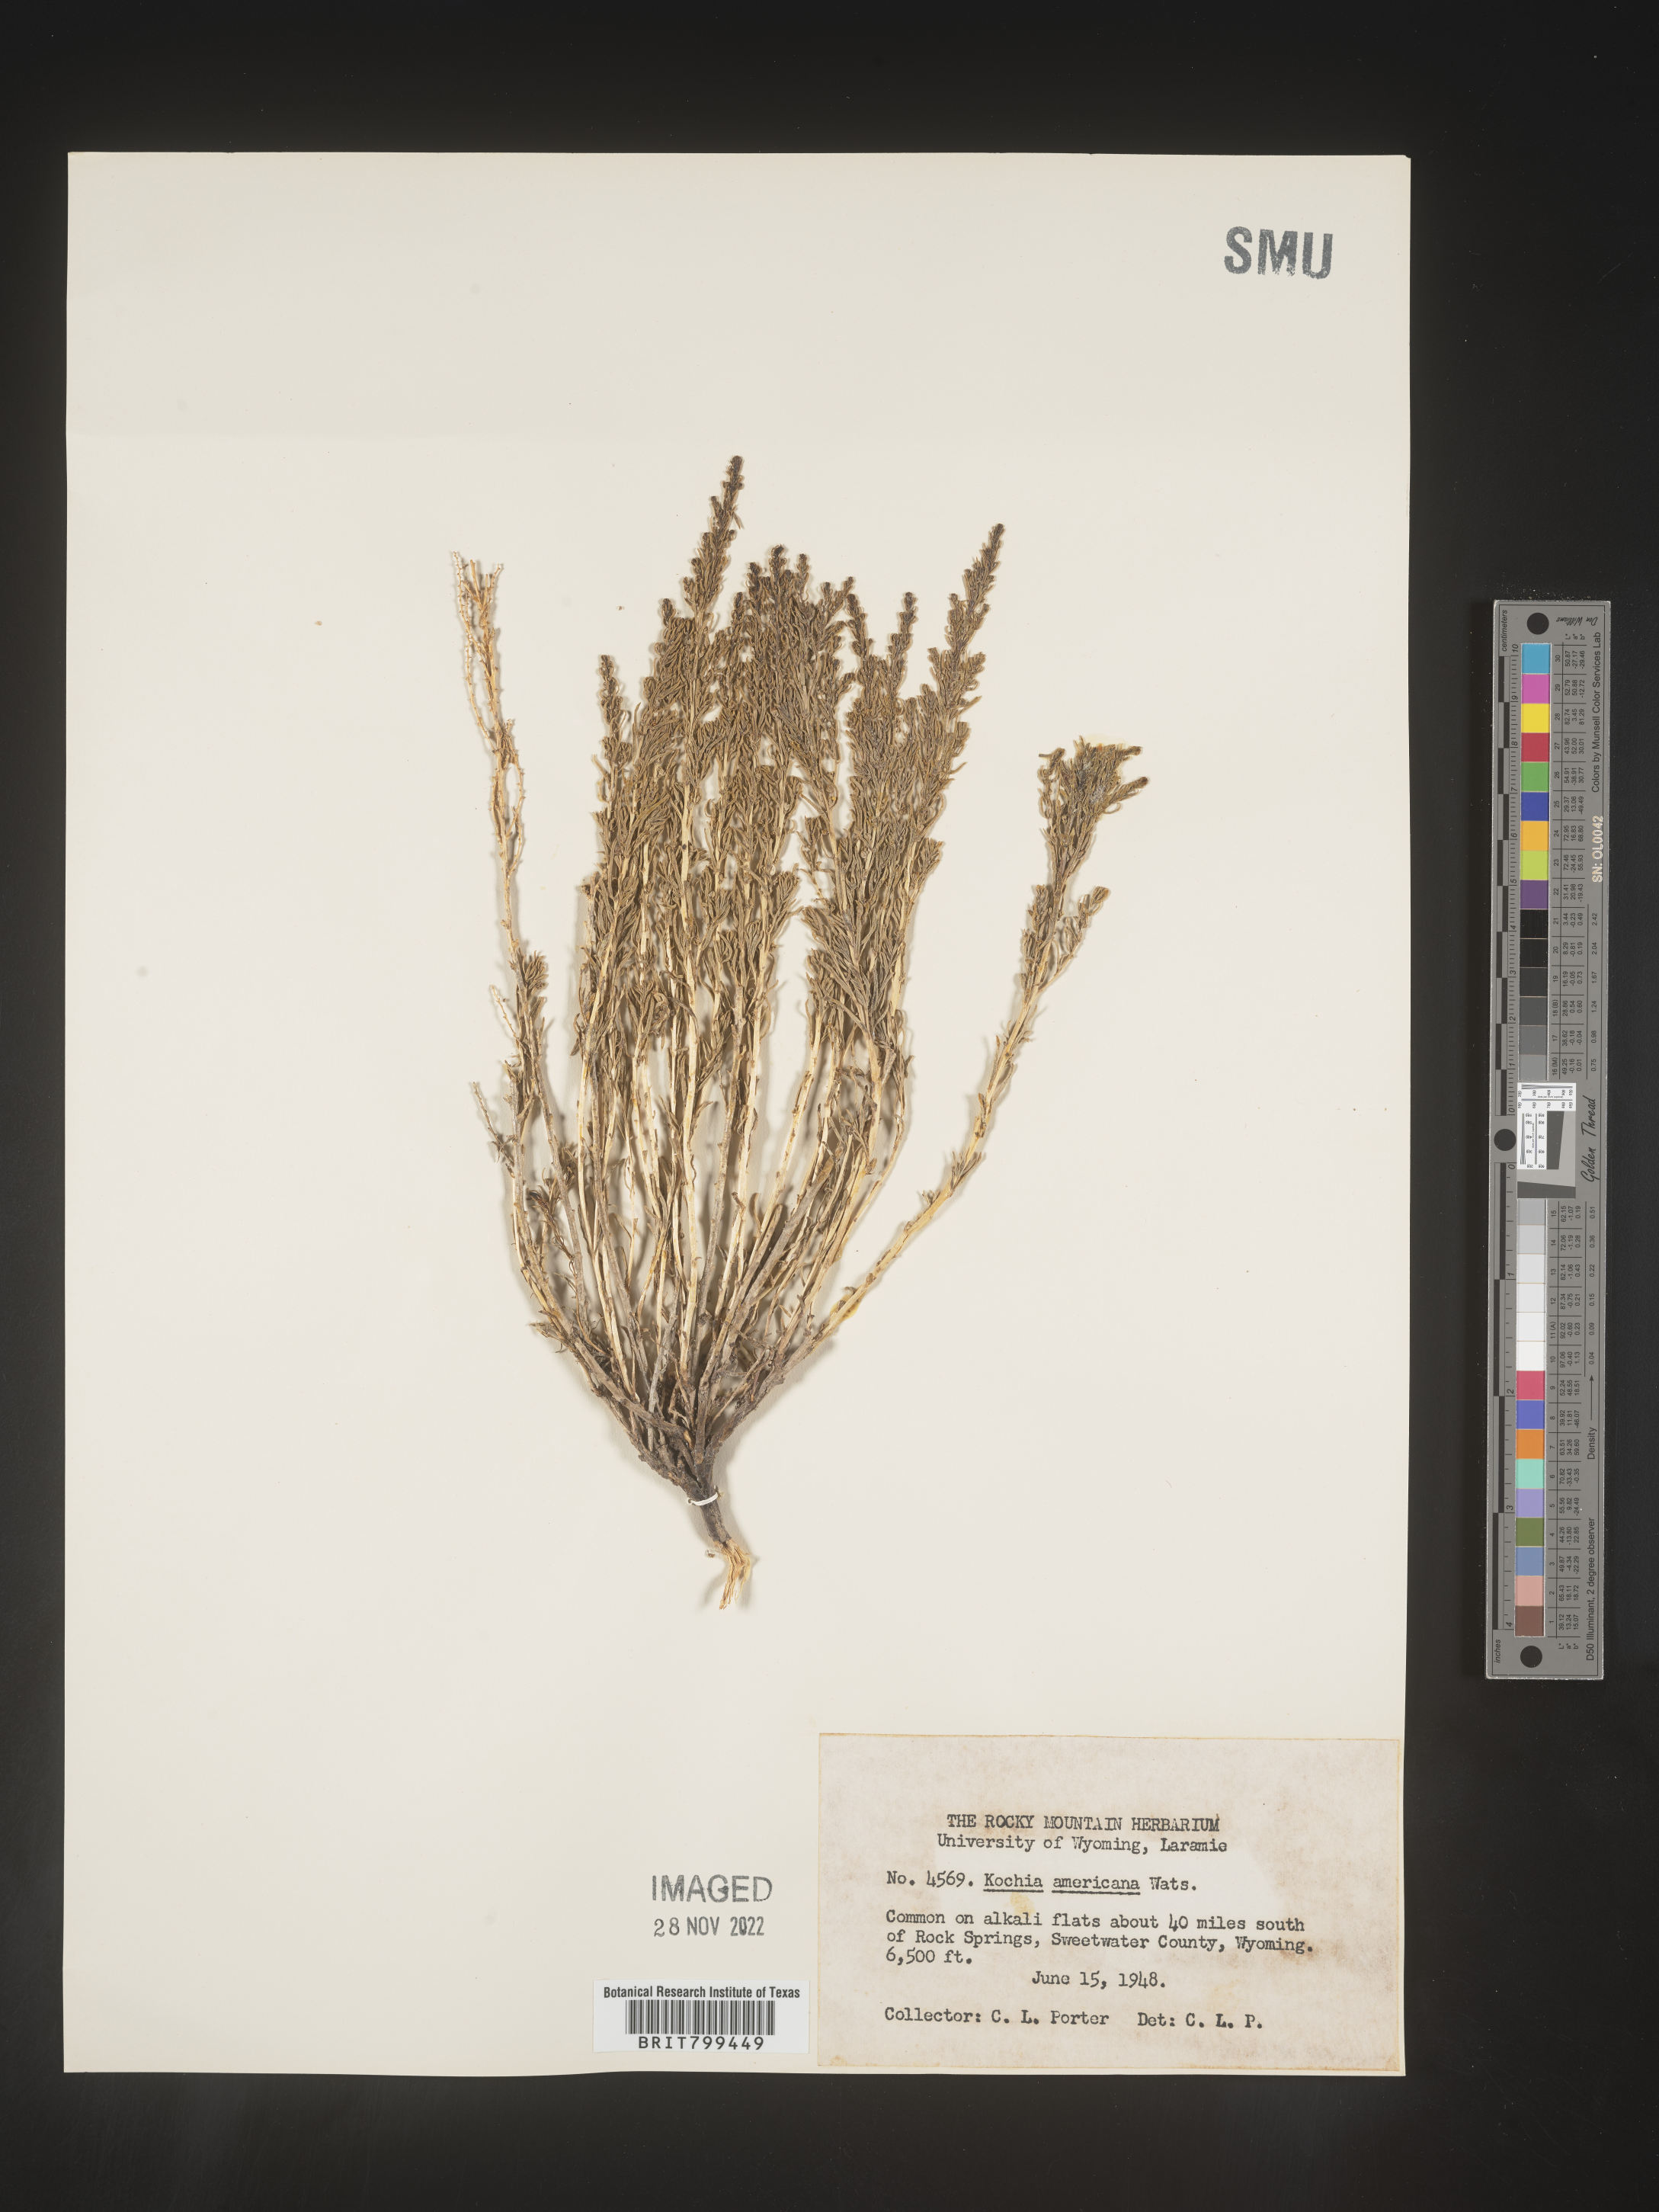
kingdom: Plantae
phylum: Tracheophyta
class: Magnoliopsida
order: Caryophyllales
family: Amaranthaceae
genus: Neokochia
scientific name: Neokochia americana
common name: Perennial summer-cypress
